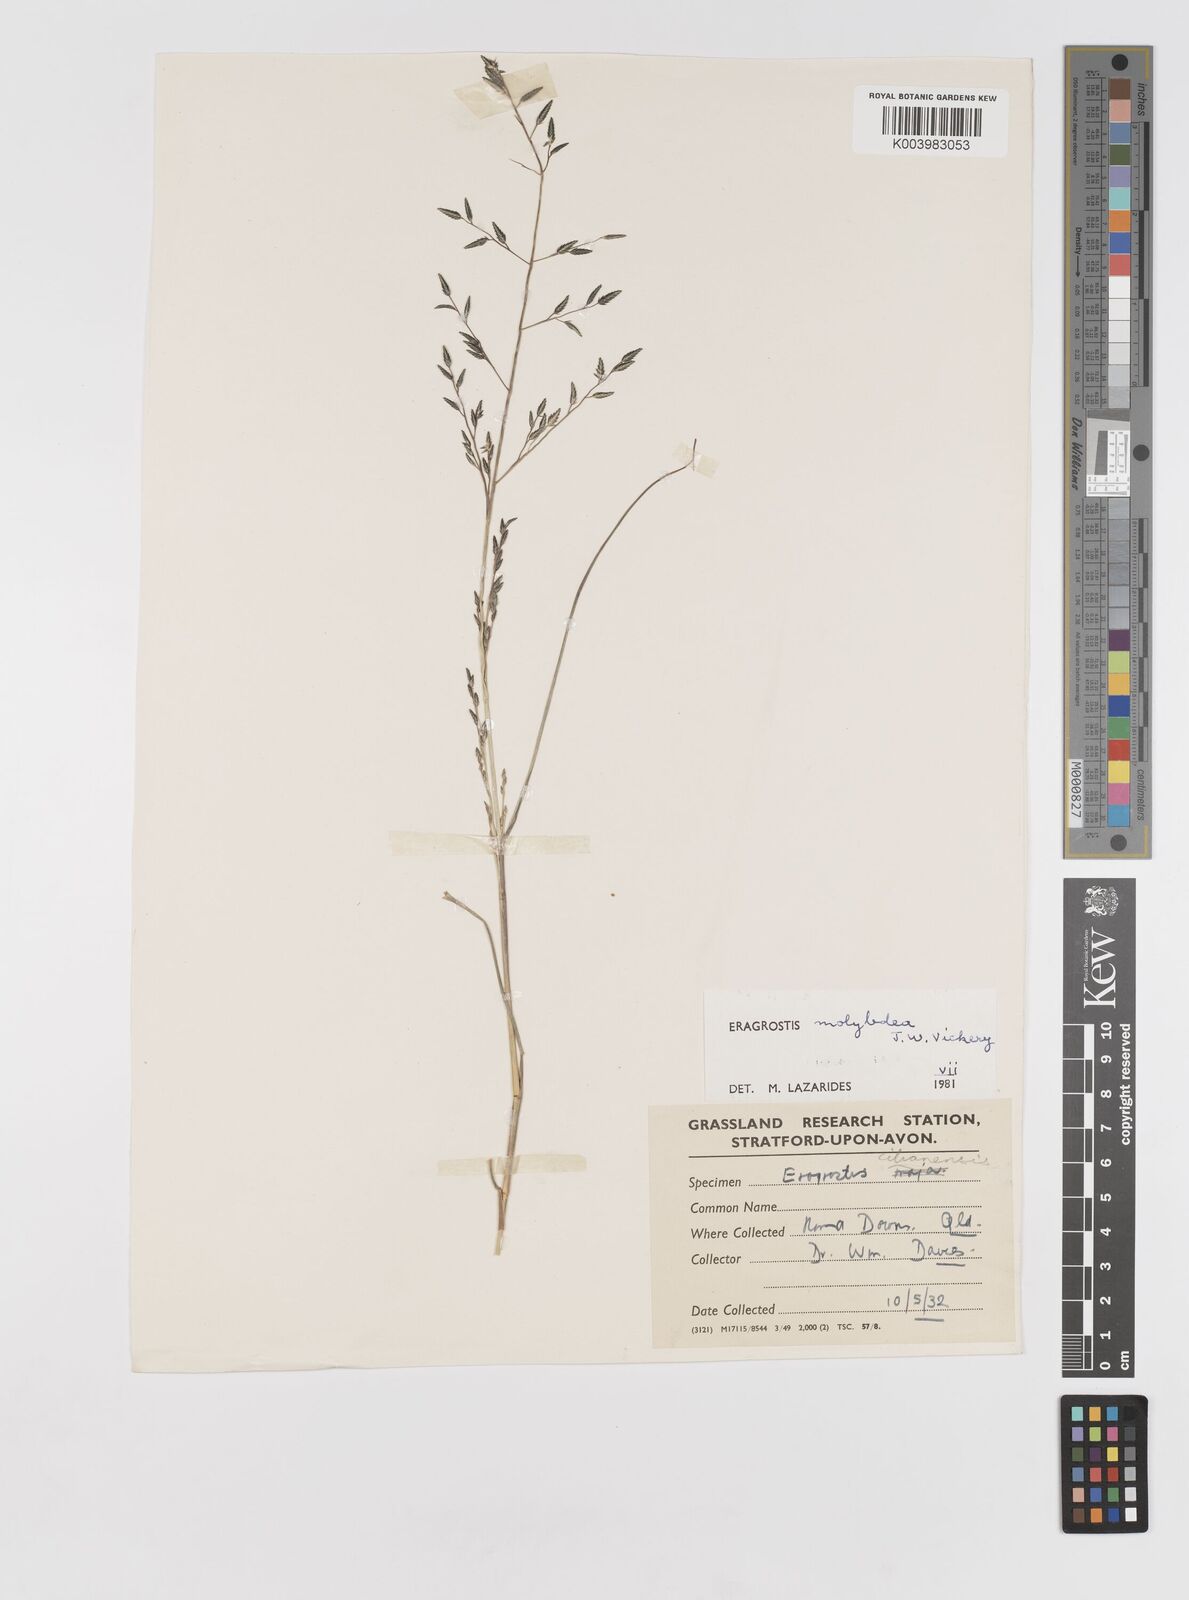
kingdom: Plantae
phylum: Tracheophyta
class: Liliopsida
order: Poales
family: Poaceae
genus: Eragrostis
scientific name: Eragrostis leptostachya
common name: Australian lovegrass
